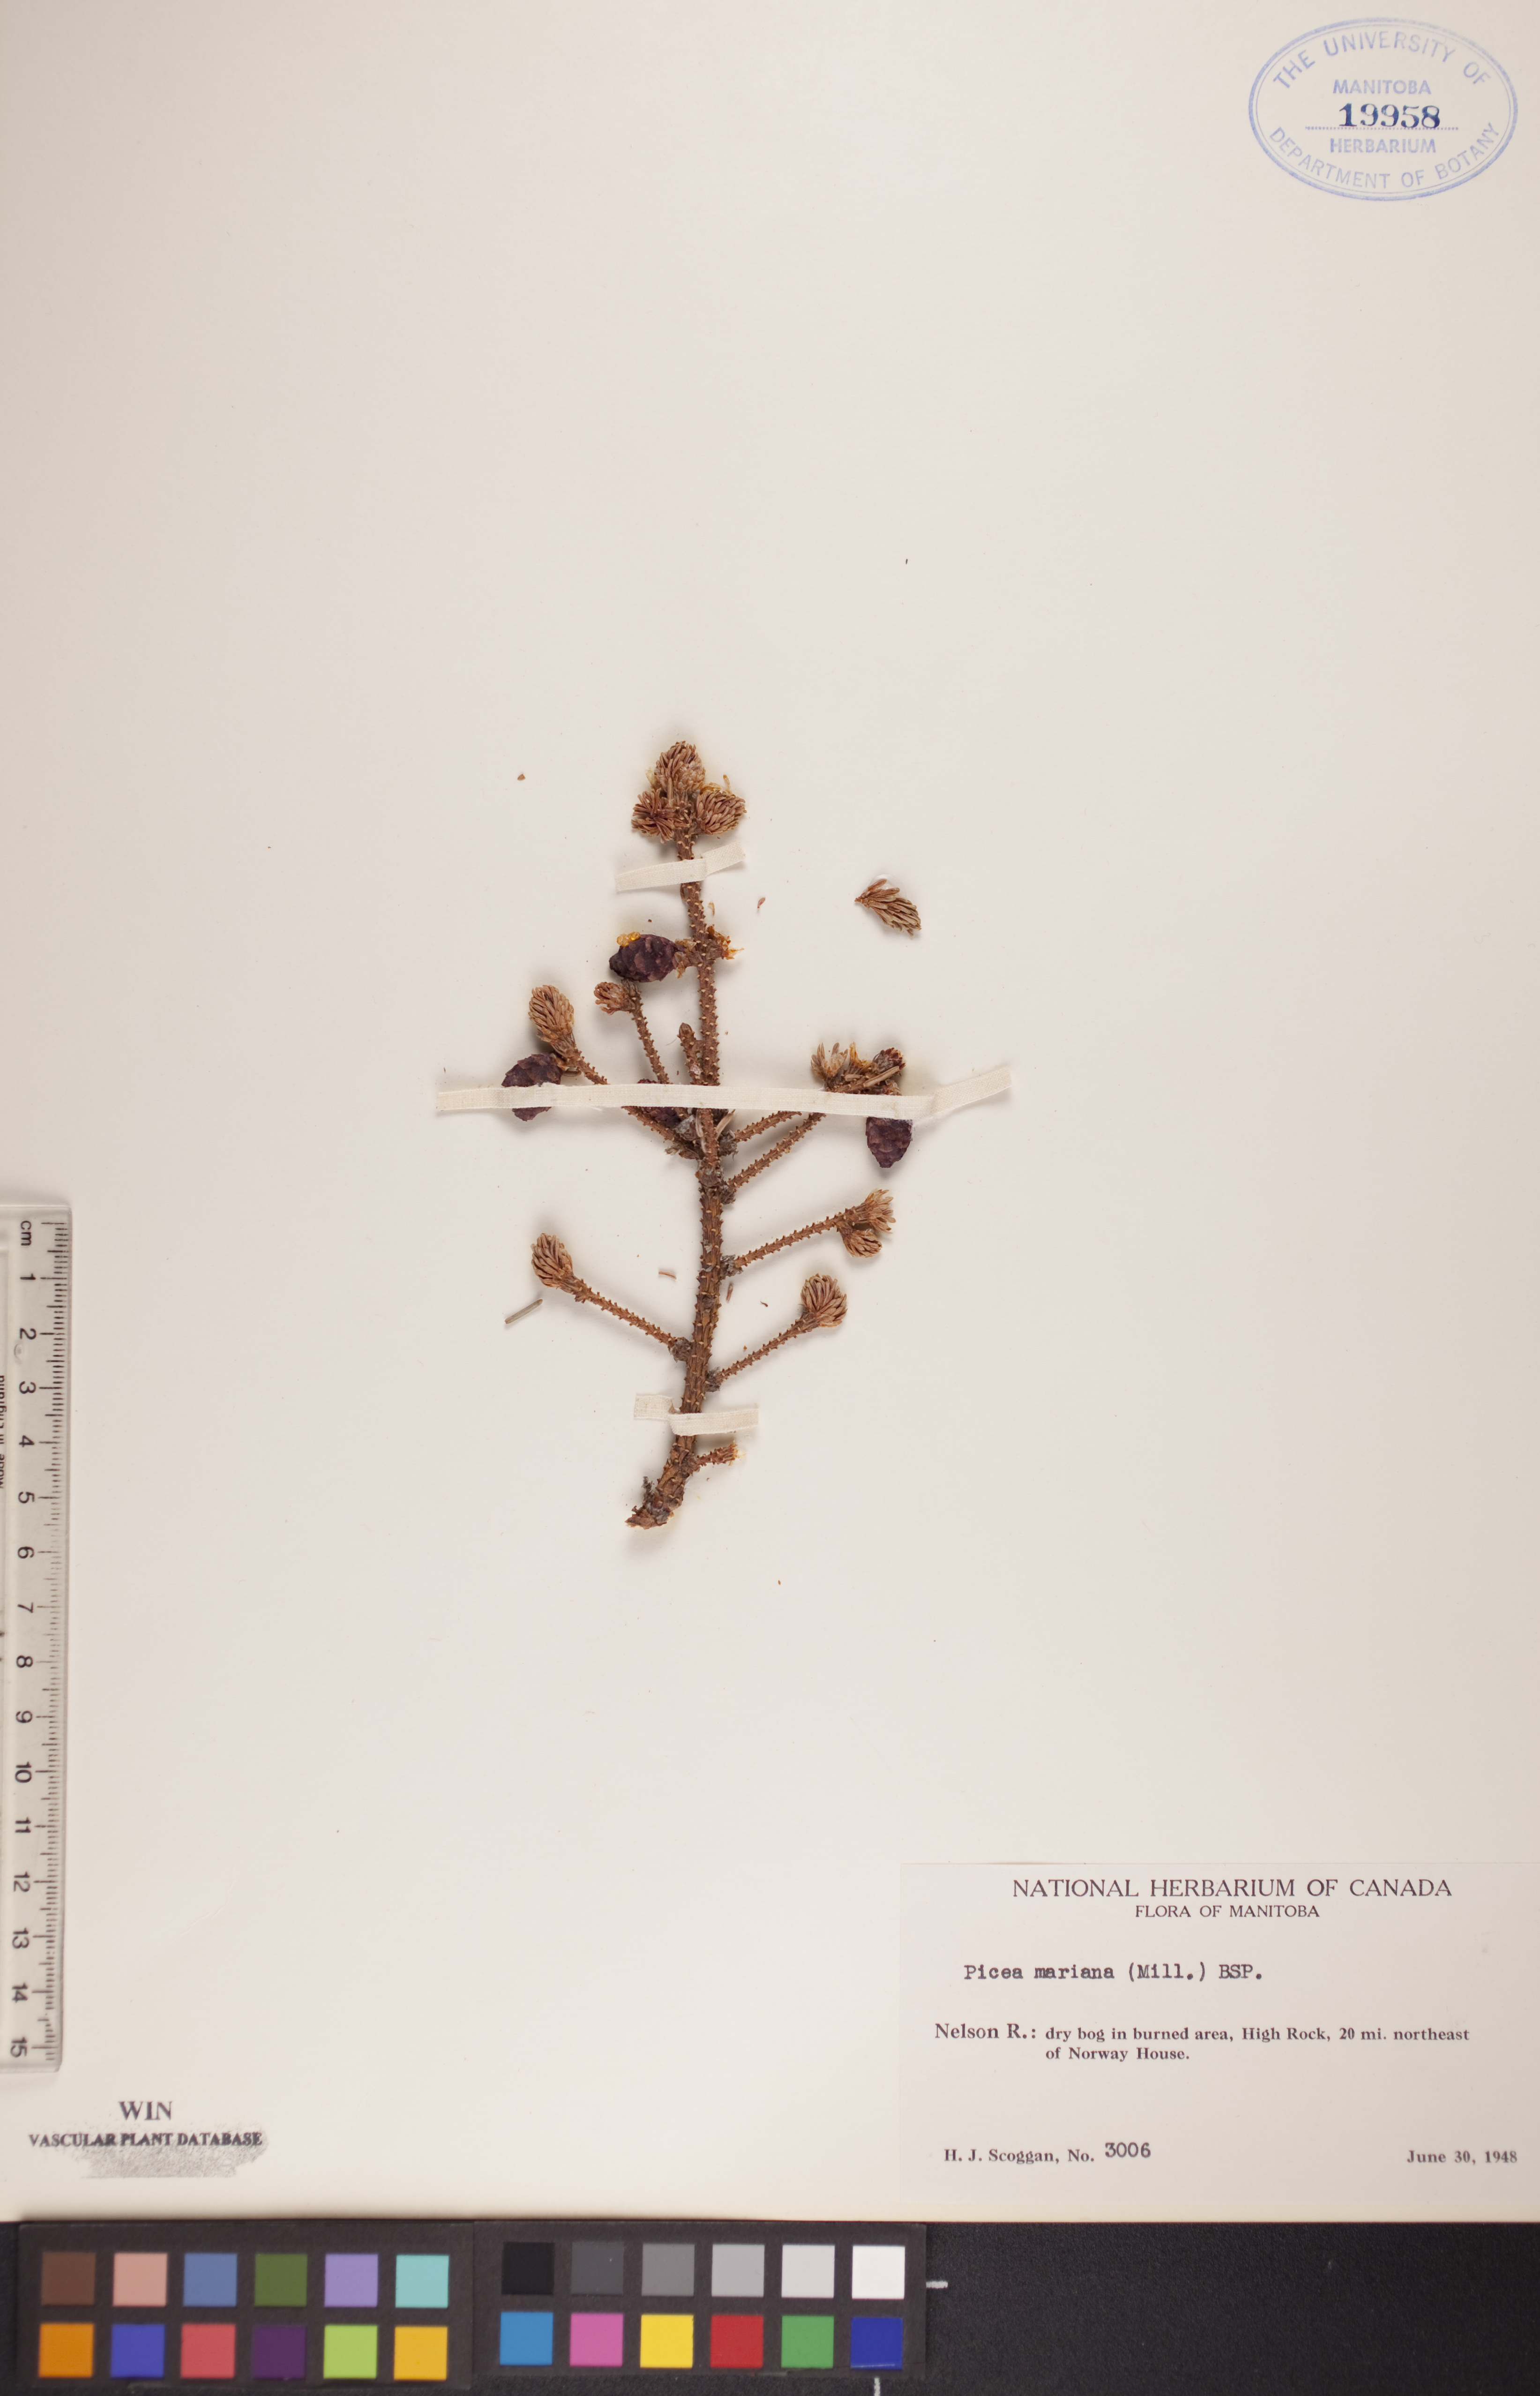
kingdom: Plantae
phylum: Tracheophyta
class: Pinopsida
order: Pinales
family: Pinaceae
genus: Picea
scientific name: Picea mariana
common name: Black spruce
